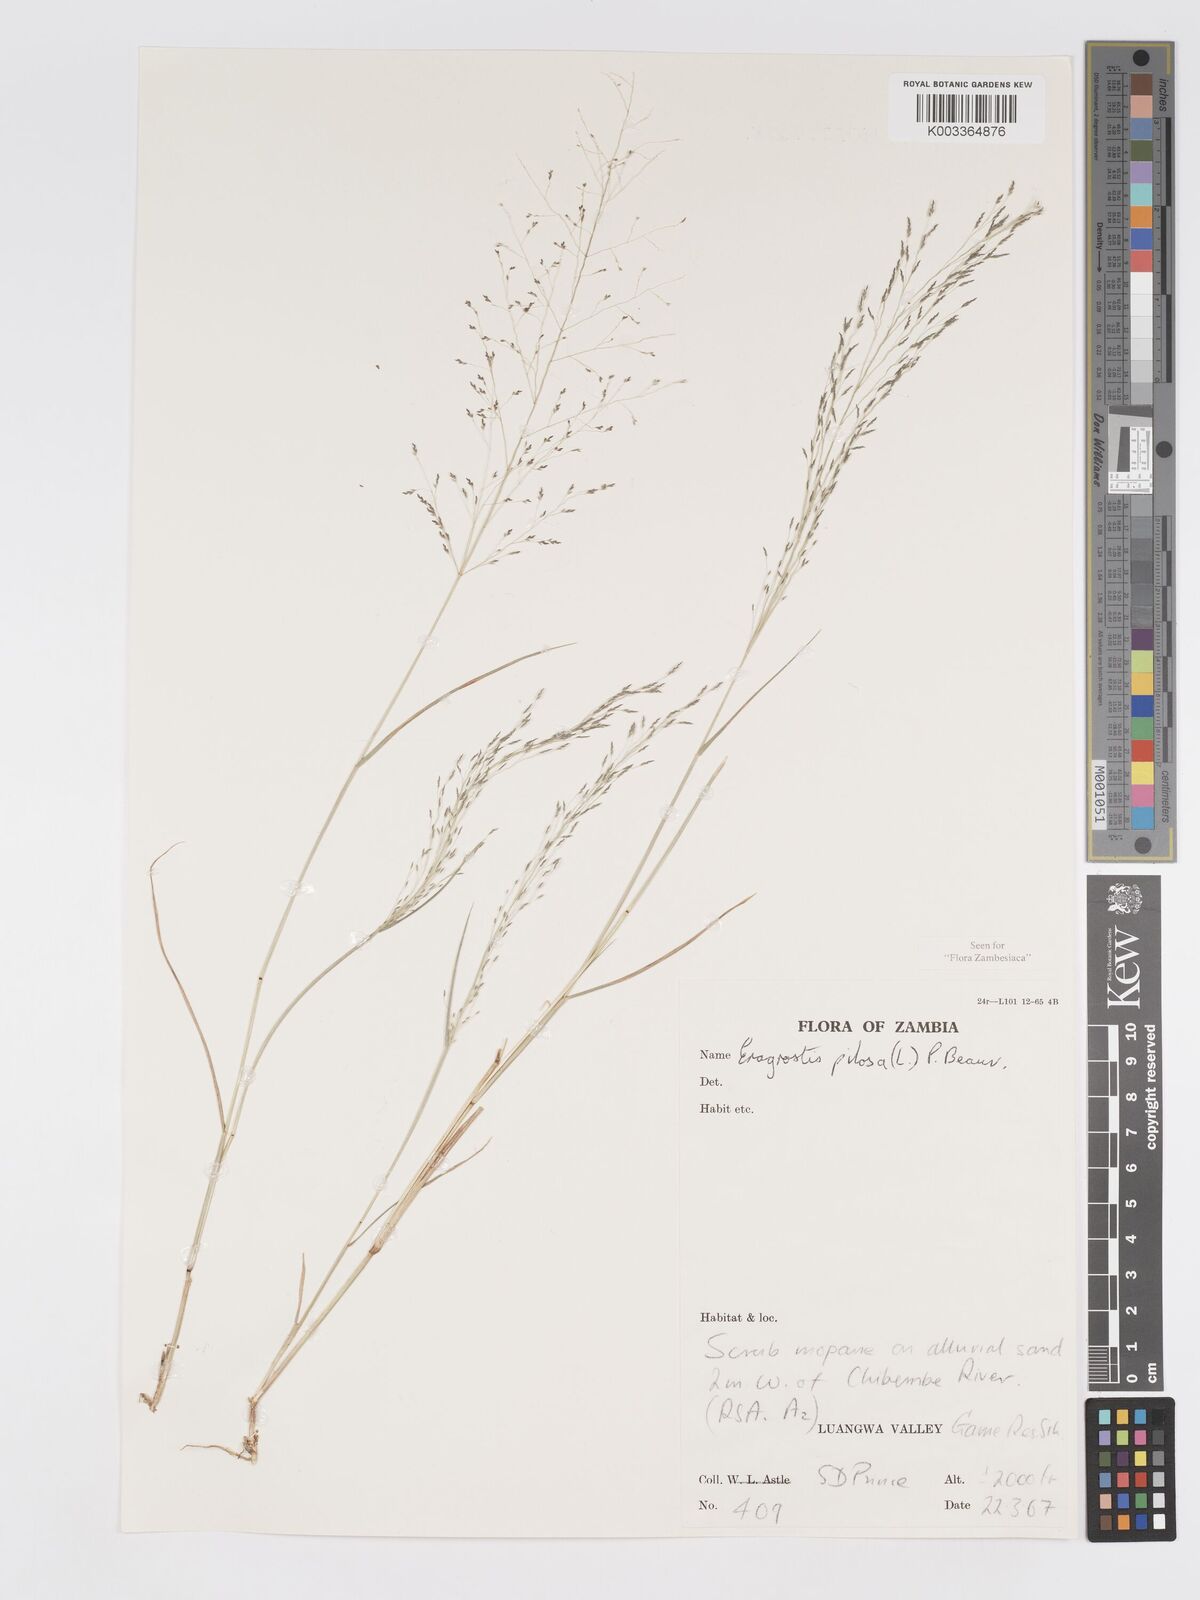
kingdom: Plantae
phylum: Tracheophyta
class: Liliopsida
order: Poales
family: Poaceae
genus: Eragrostis
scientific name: Eragrostis pilosa
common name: Indian lovegrass
